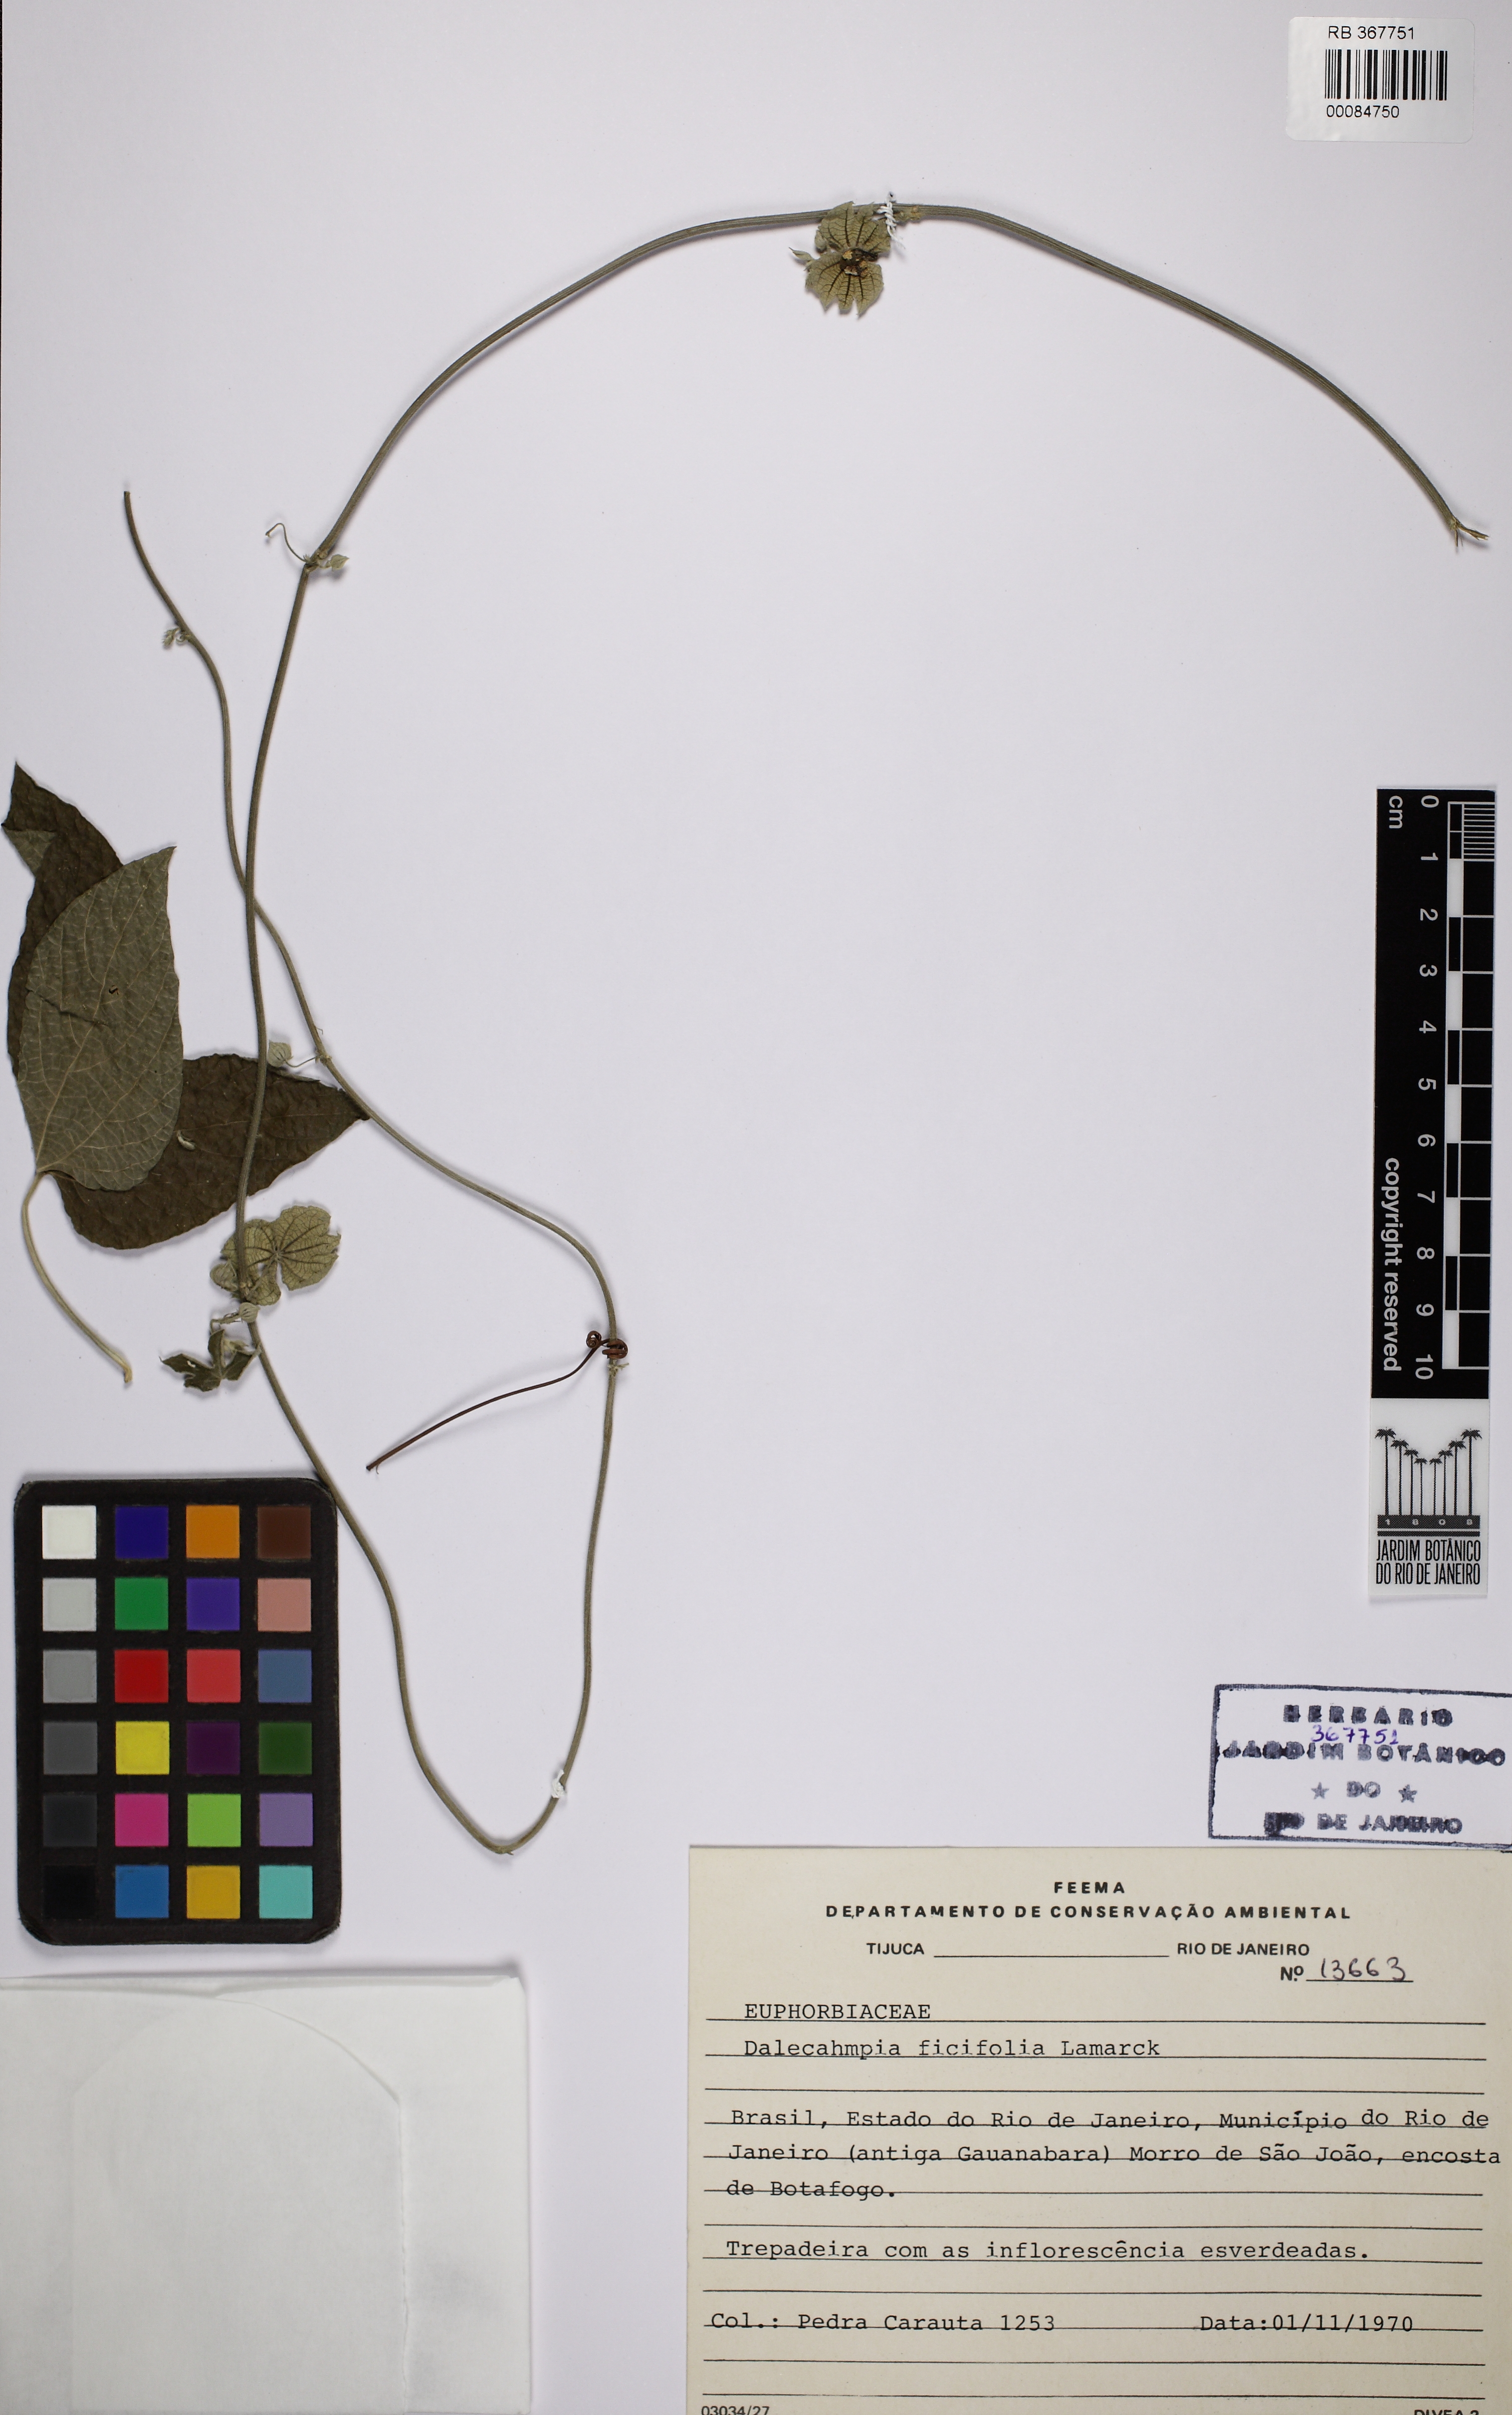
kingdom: Plantae
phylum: Tracheophyta
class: Magnoliopsida
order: Malpighiales
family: Euphorbiaceae
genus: Dalechampia
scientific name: Dalechampia ficifolia
